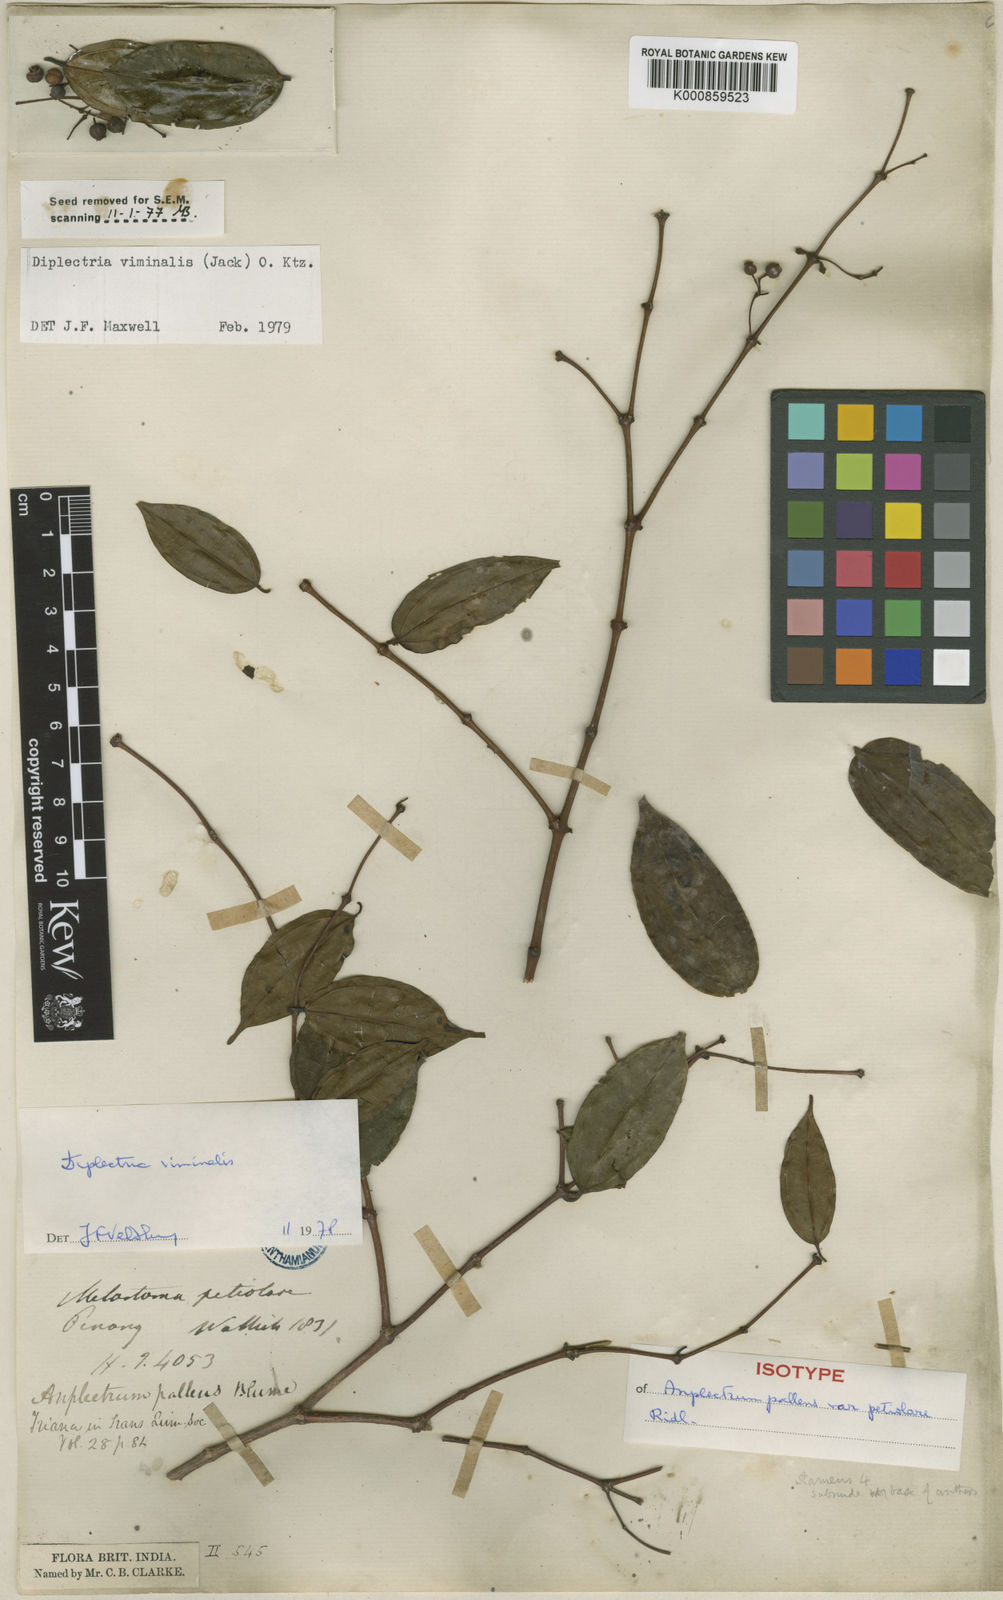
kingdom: Plantae
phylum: Tracheophyta
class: Magnoliopsida
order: Myrtales
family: Melastomataceae
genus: Diplectria
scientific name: Diplectria viminalis
